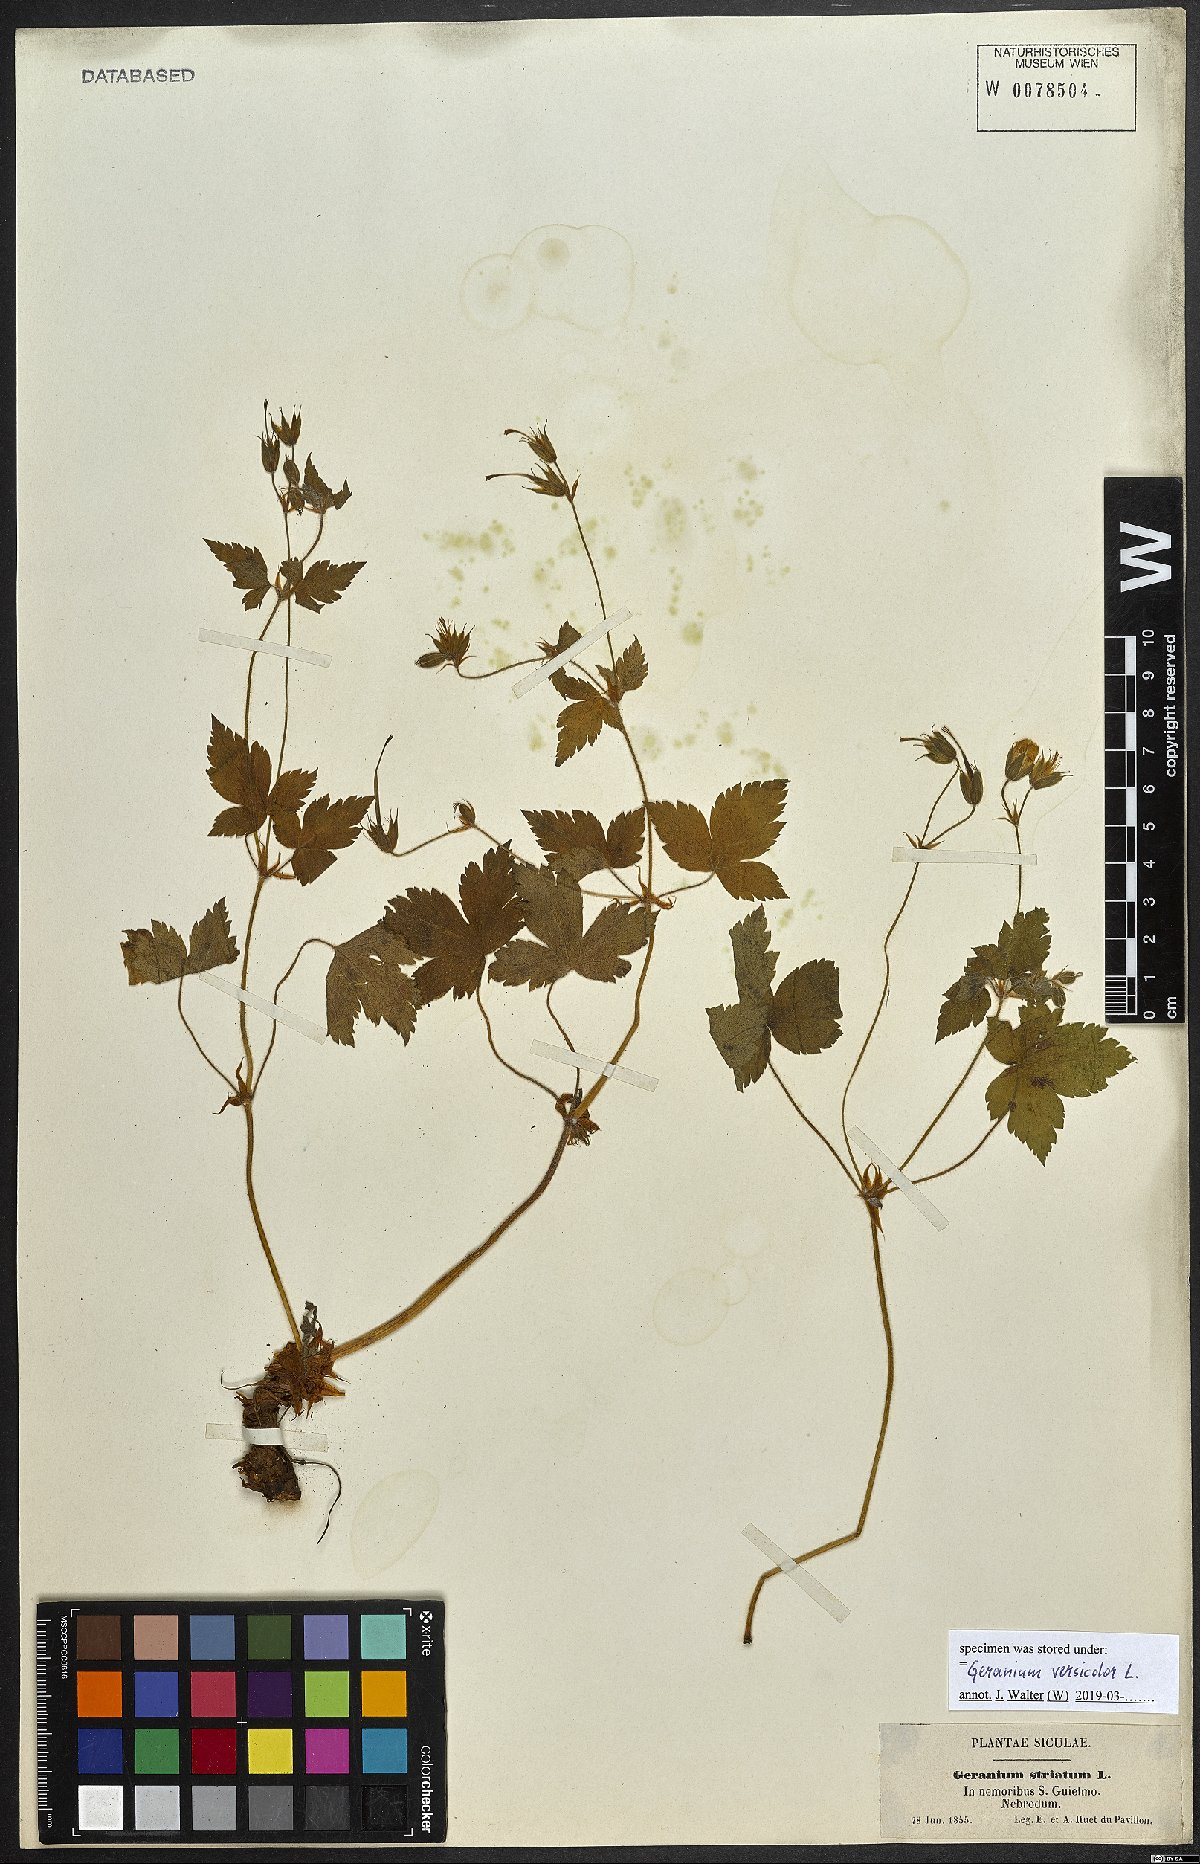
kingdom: Plantae
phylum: Tracheophyta
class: Magnoliopsida
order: Geraniales
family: Geraniaceae
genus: Geranium
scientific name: Geranium versicolor
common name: Pencilled crane's-bill
